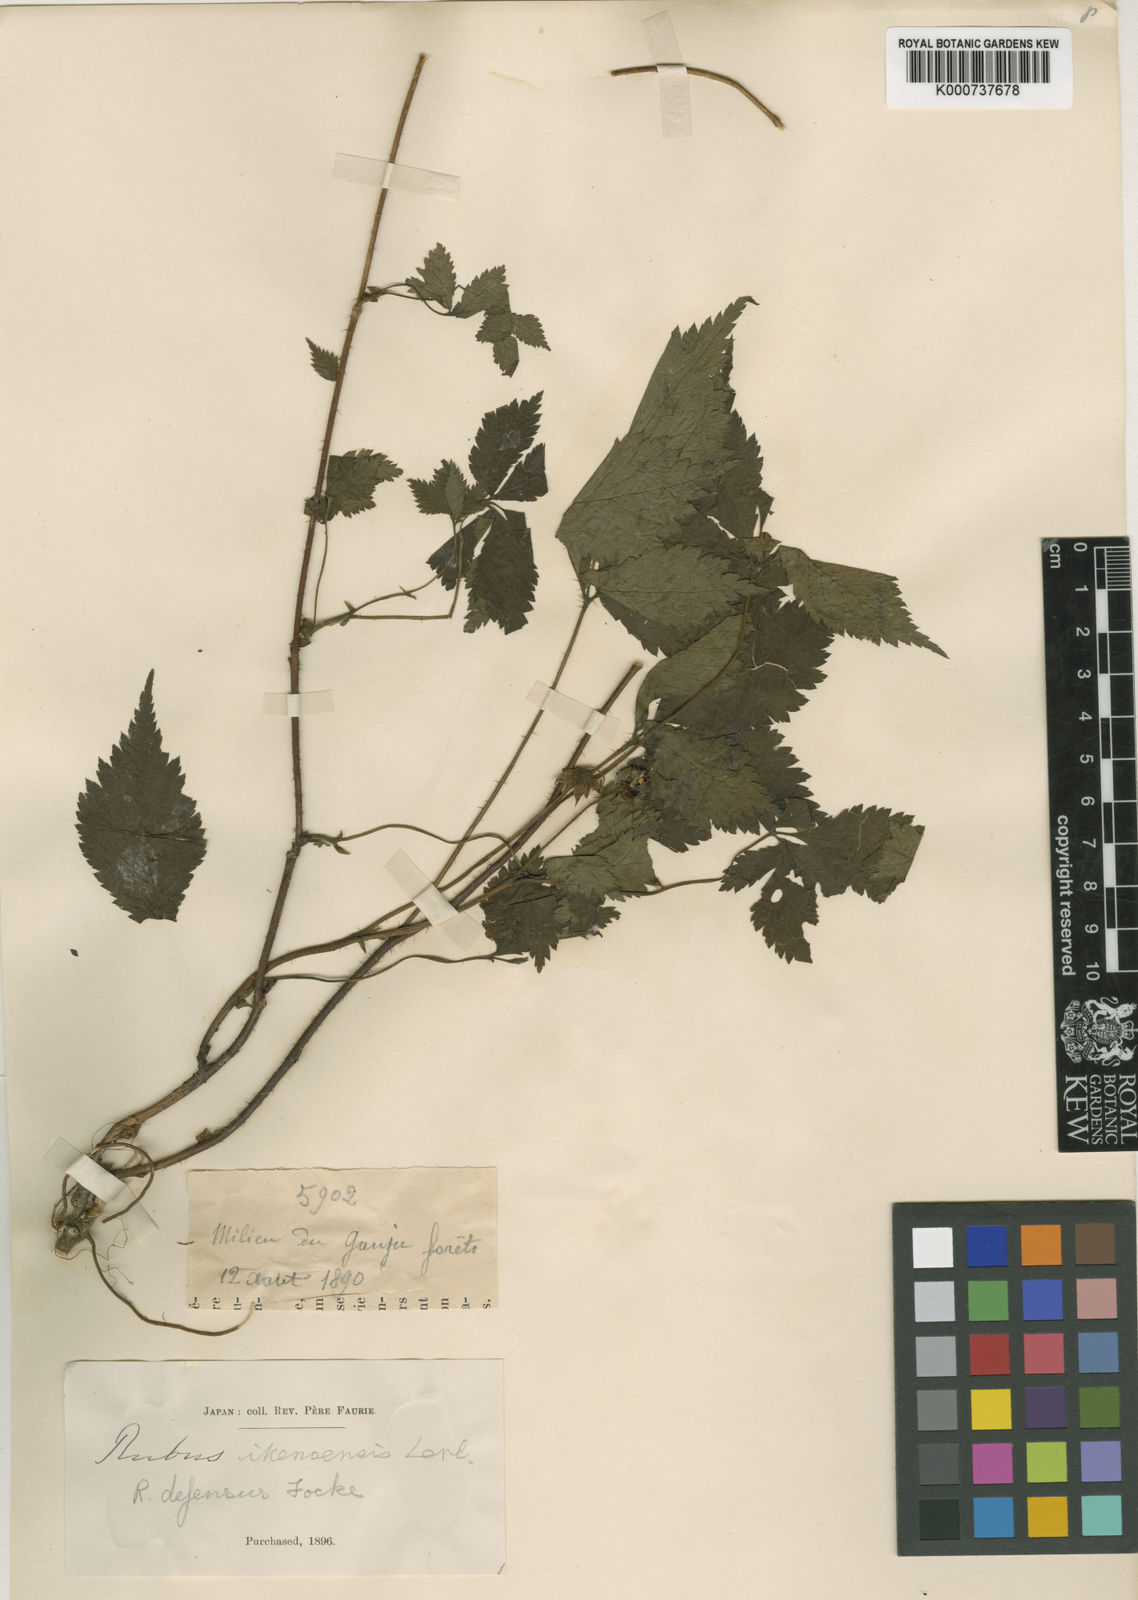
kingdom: Plantae
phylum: Tracheophyta
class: Magnoliopsida
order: Rosales
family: Rosaceae
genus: Rubus
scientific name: Rubus idaeus
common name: Raspberry
